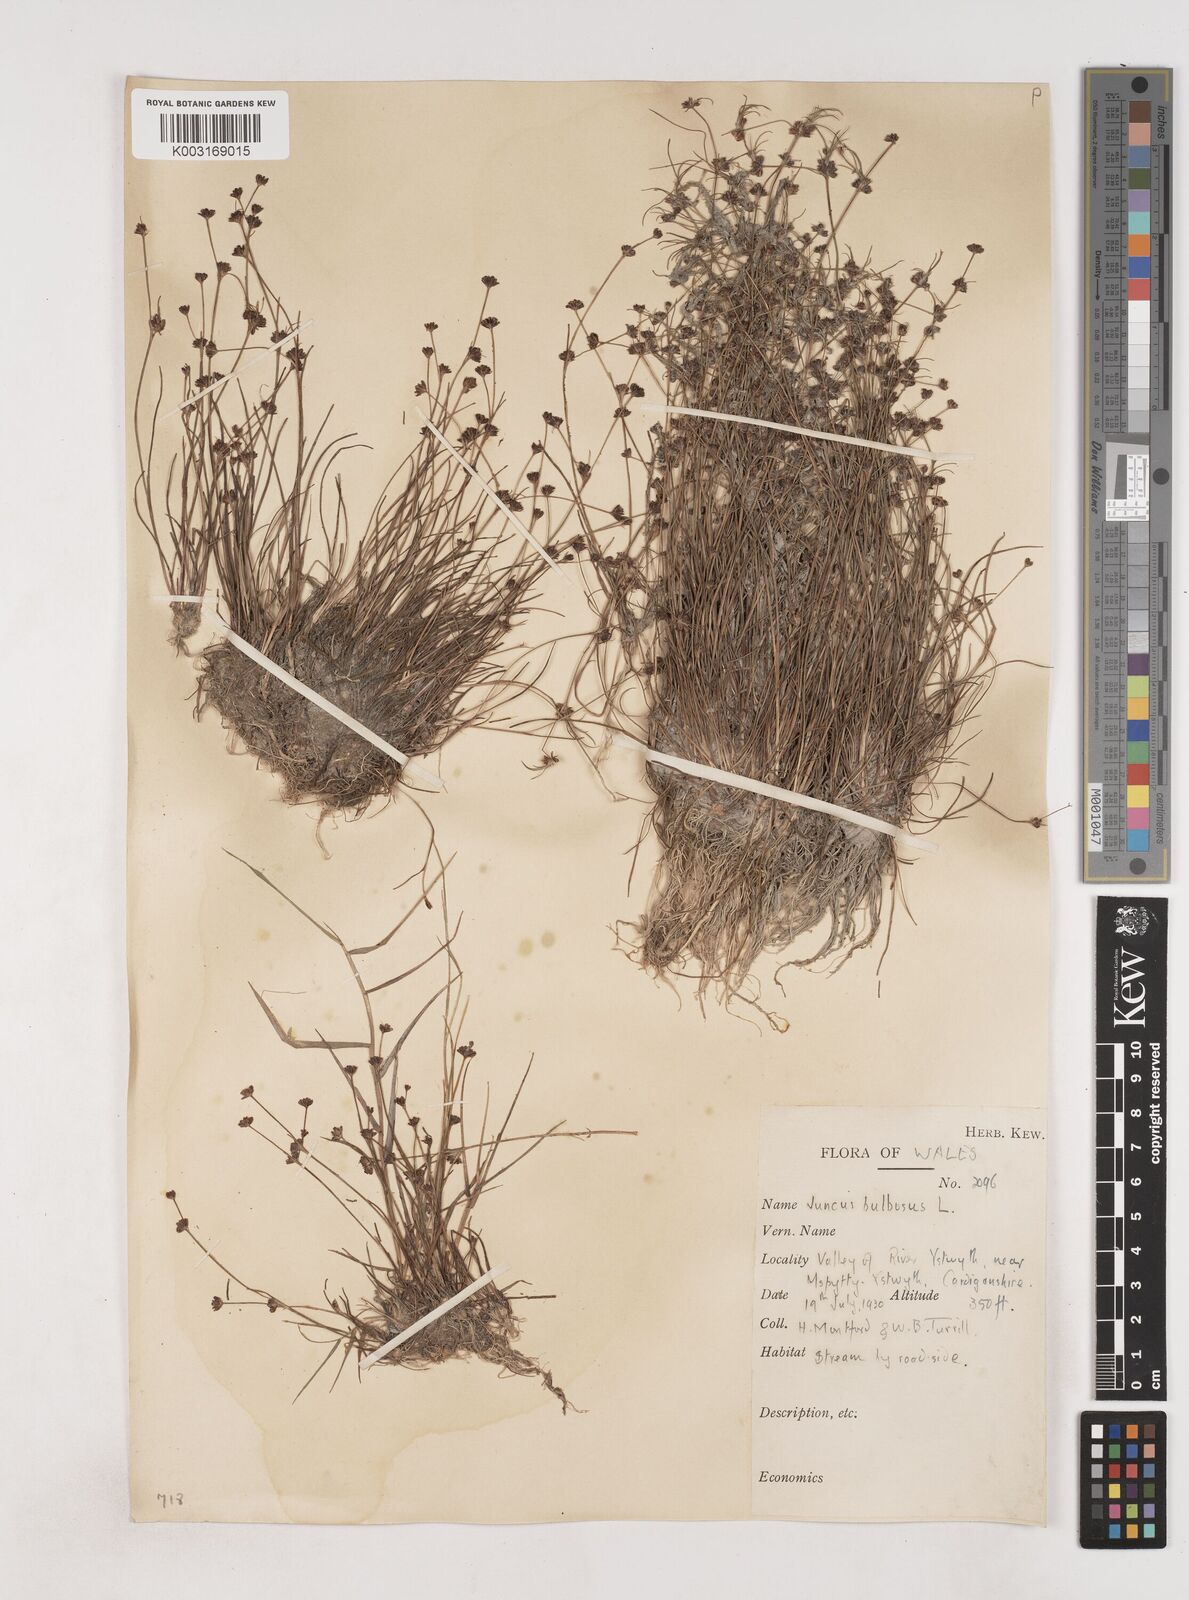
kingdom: Plantae
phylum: Tracheophyta
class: Liliopsida
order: Poales
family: Juncaceae
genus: Juncus
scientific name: Juncus bulbosus
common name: Bulbous rush
